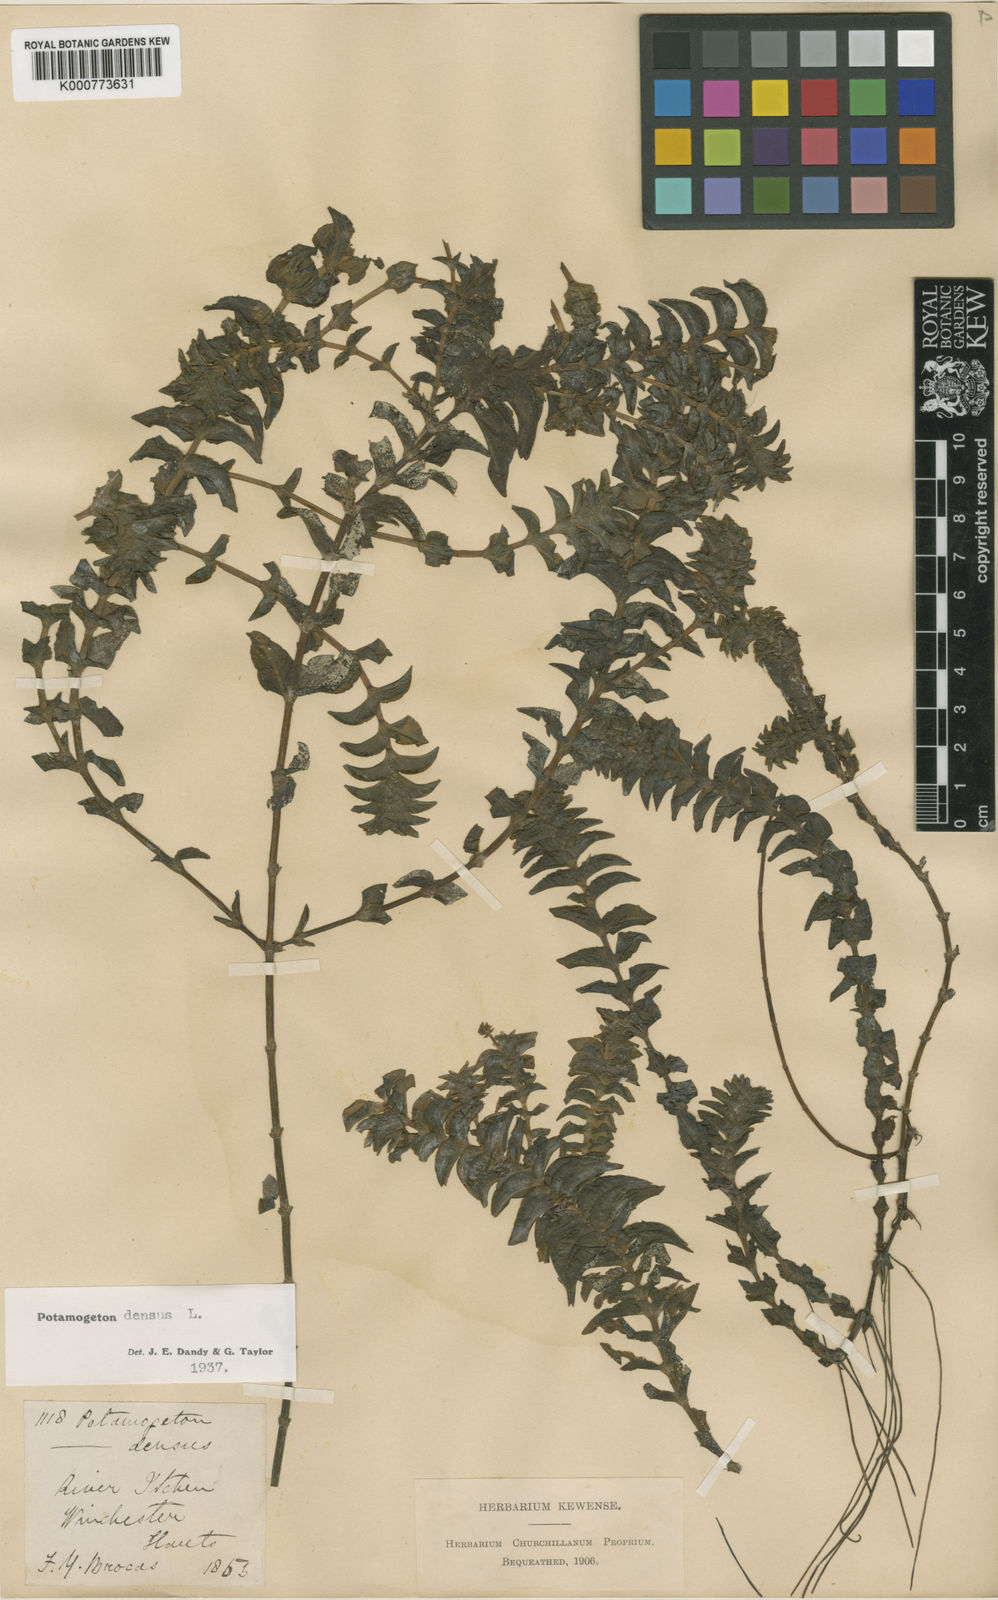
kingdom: Plantae
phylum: Tracheophyta
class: Liliopsida
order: Alismatales
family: Potamogetonaceae
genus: Groenlandia
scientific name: Groenlandia densa
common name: Opposite-leaved pondweed
